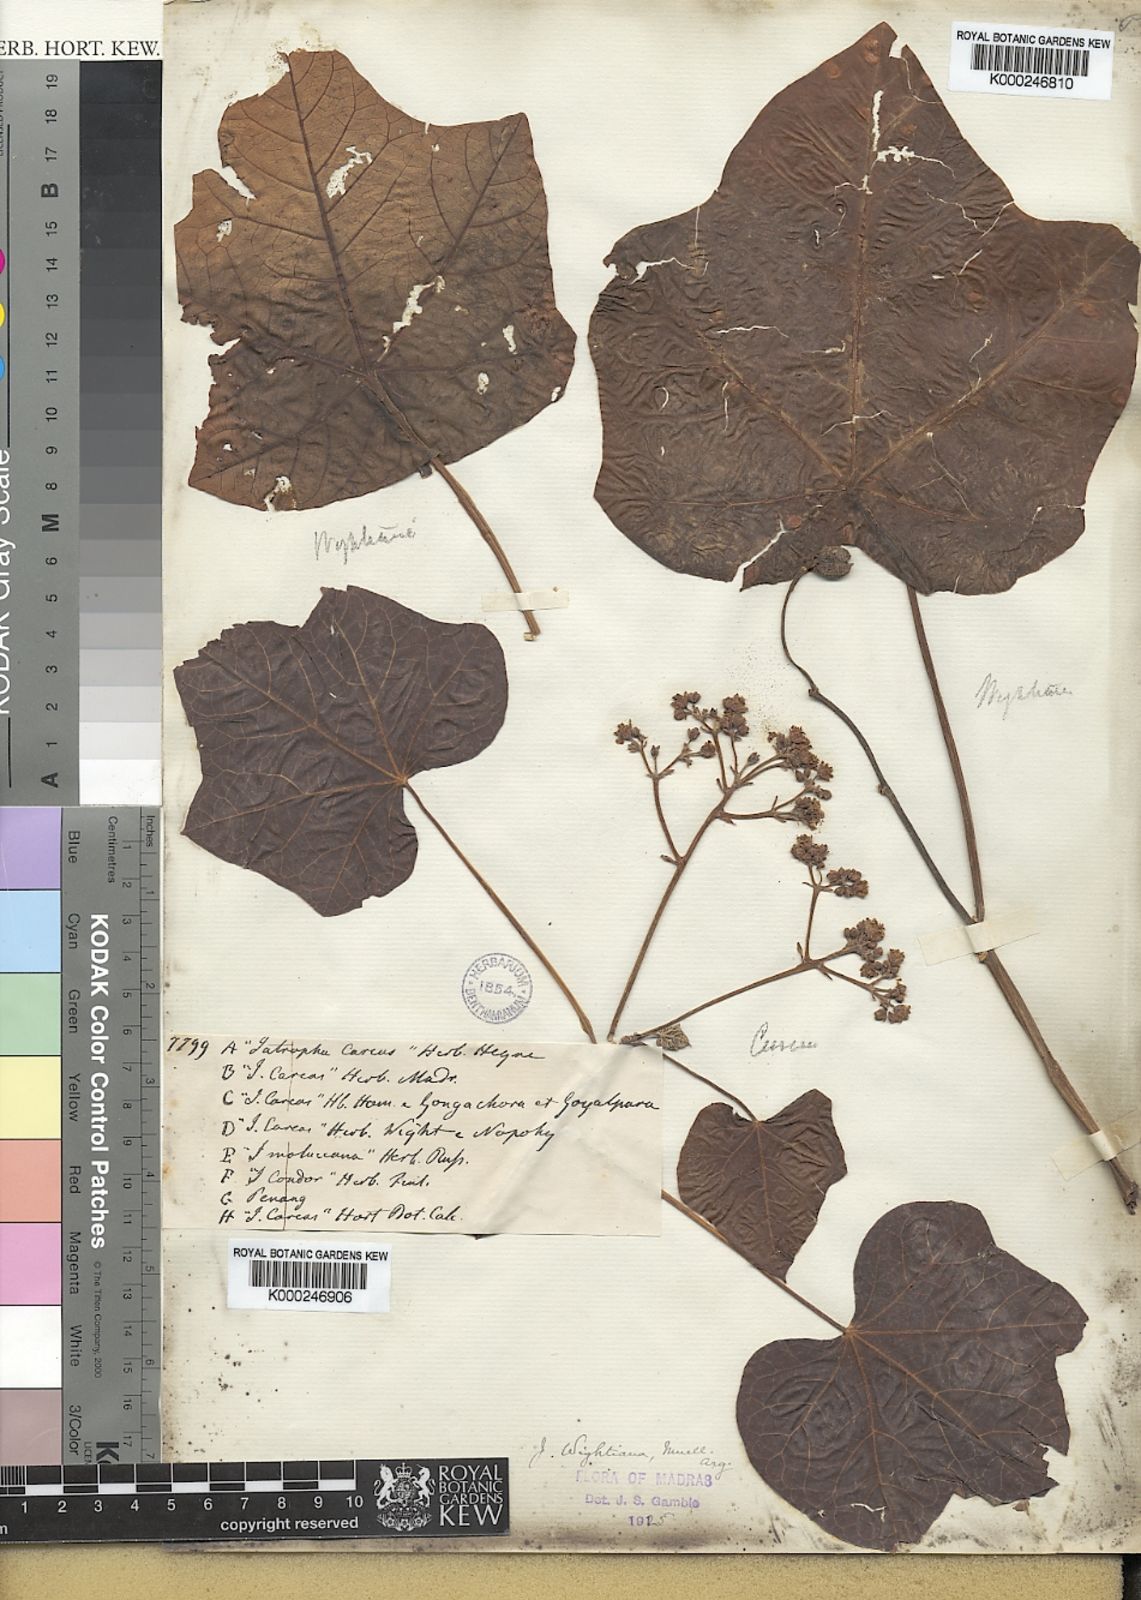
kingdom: Plantae
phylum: Tracheophyta
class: Magnoliopsida
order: Malpighiales
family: Euphorbiaceae
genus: Jatropha
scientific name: Jatropha
